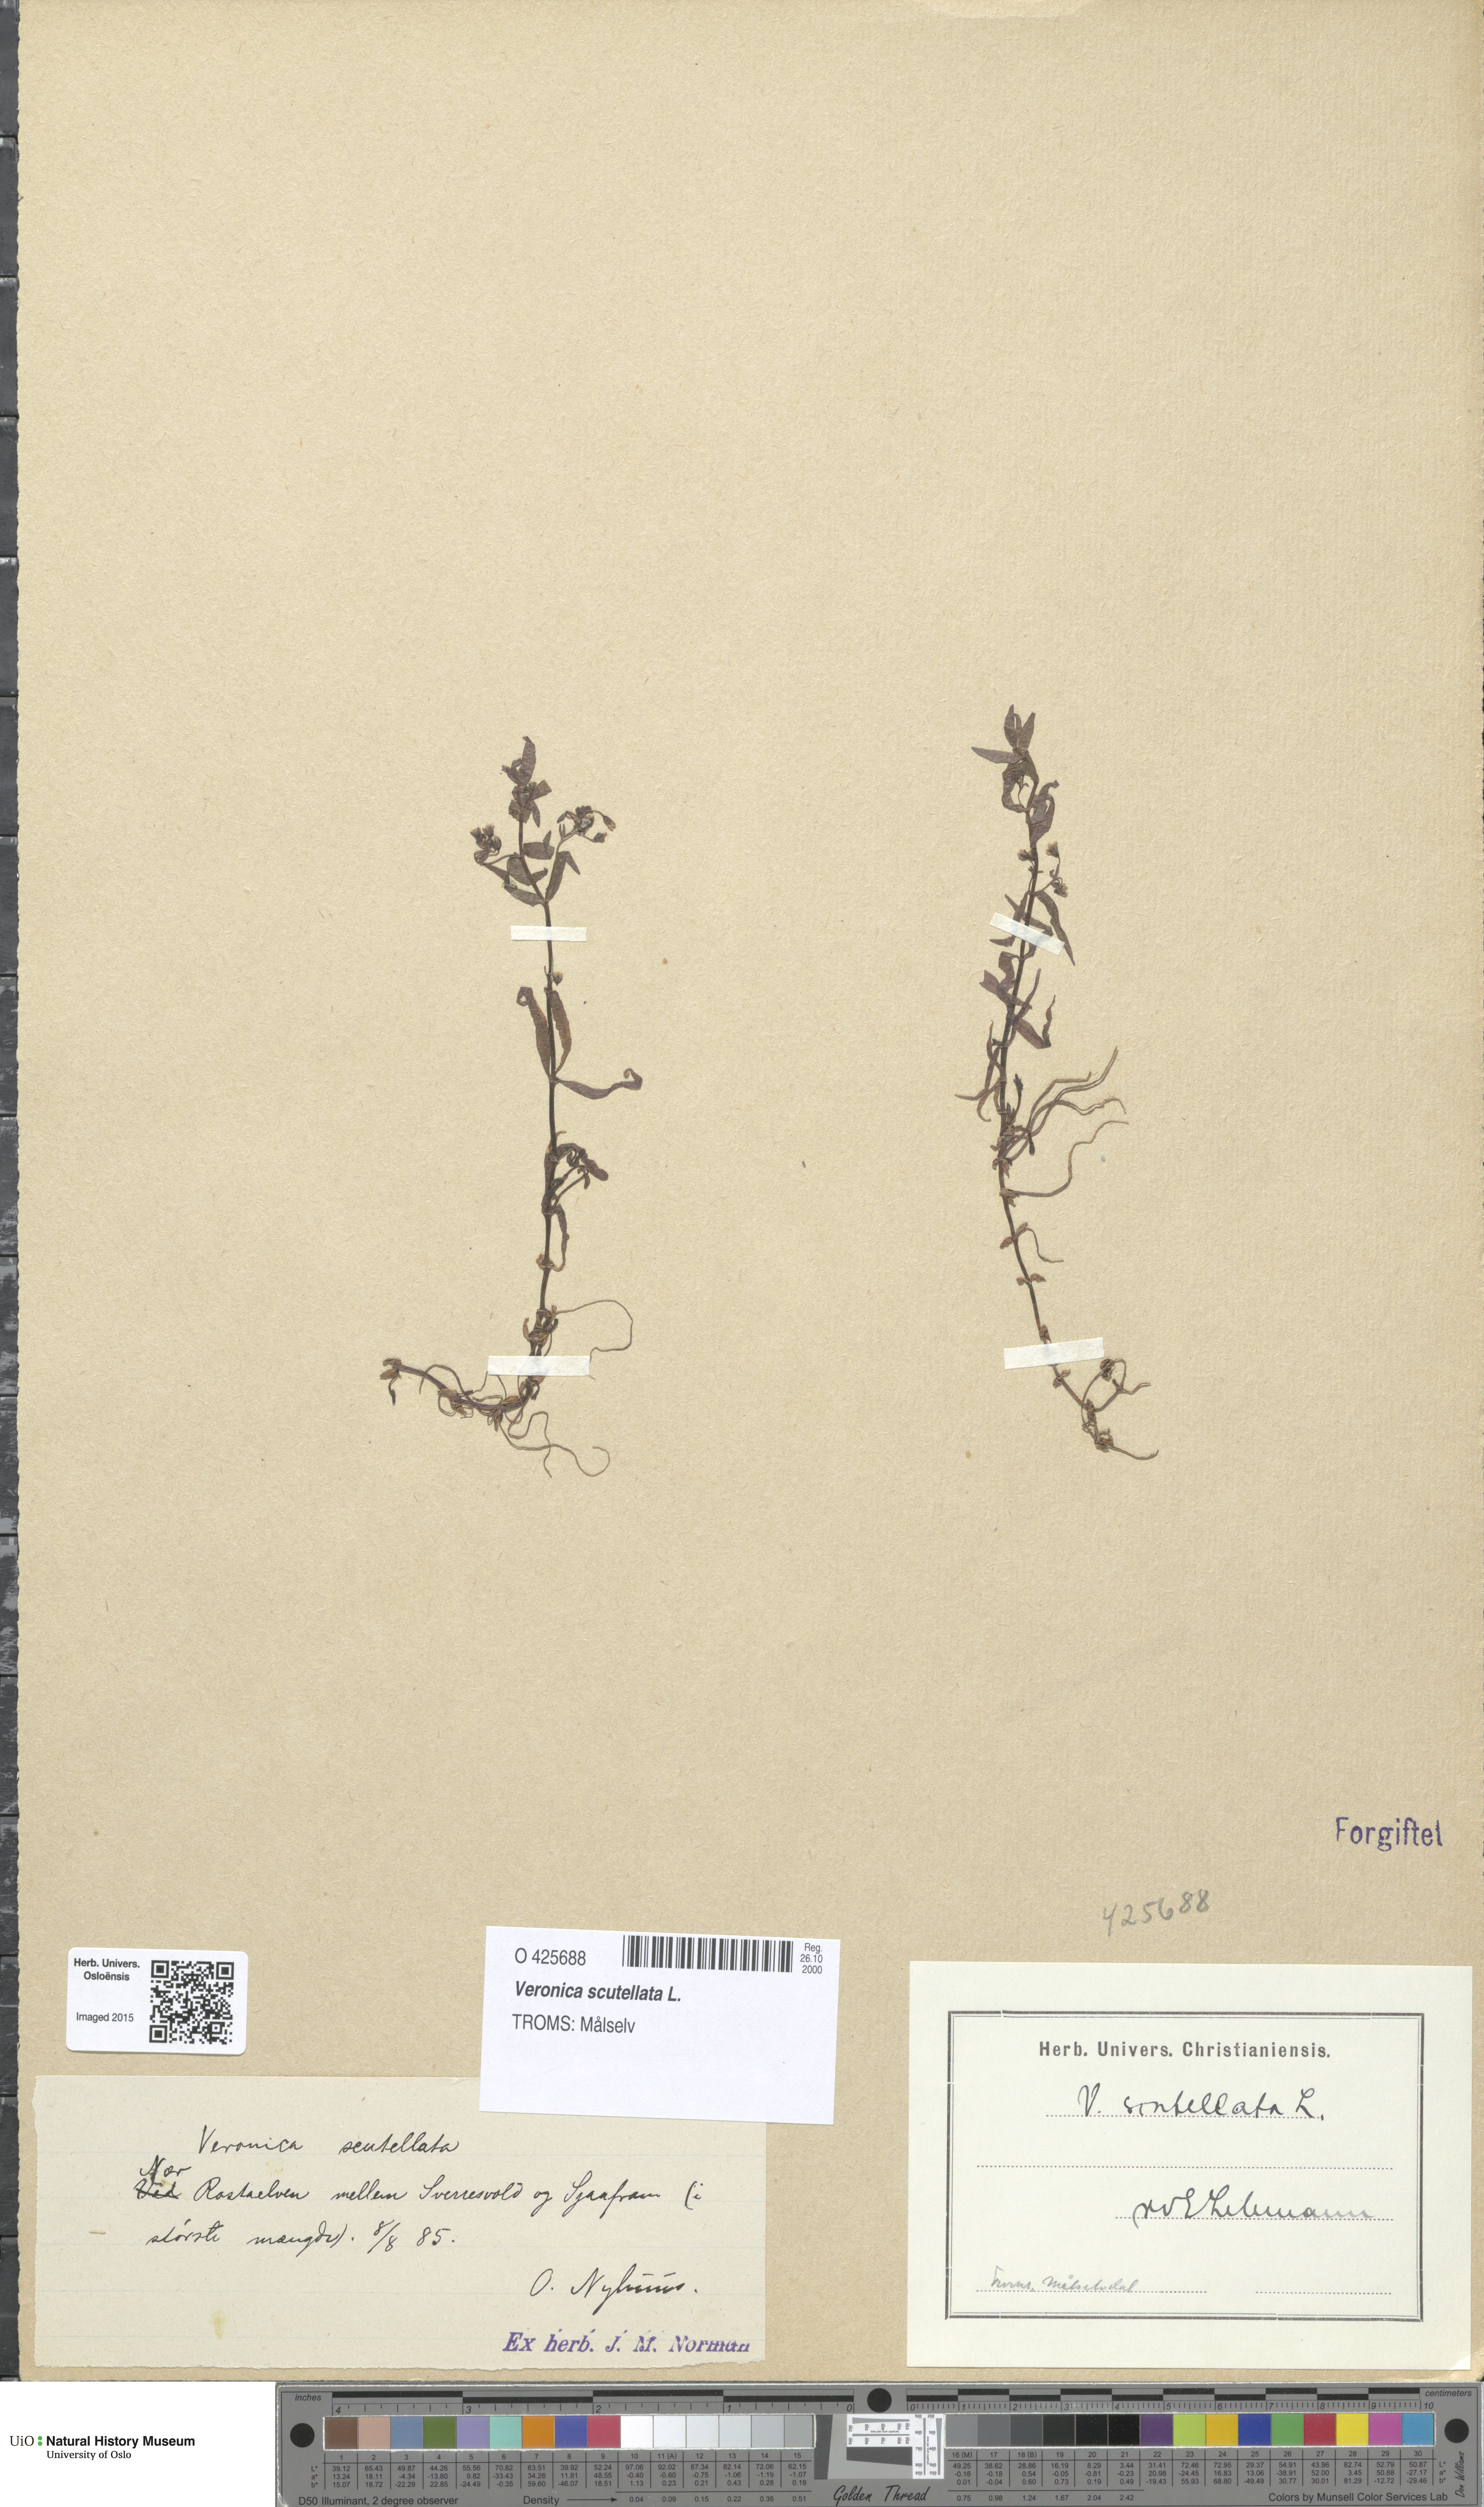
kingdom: Plantae
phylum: Tracheophyta
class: Magnoliopsida
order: Lamiales
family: Plantaginaceae
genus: Veronica
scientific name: Veronica scutellata
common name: Marsh speedwell
